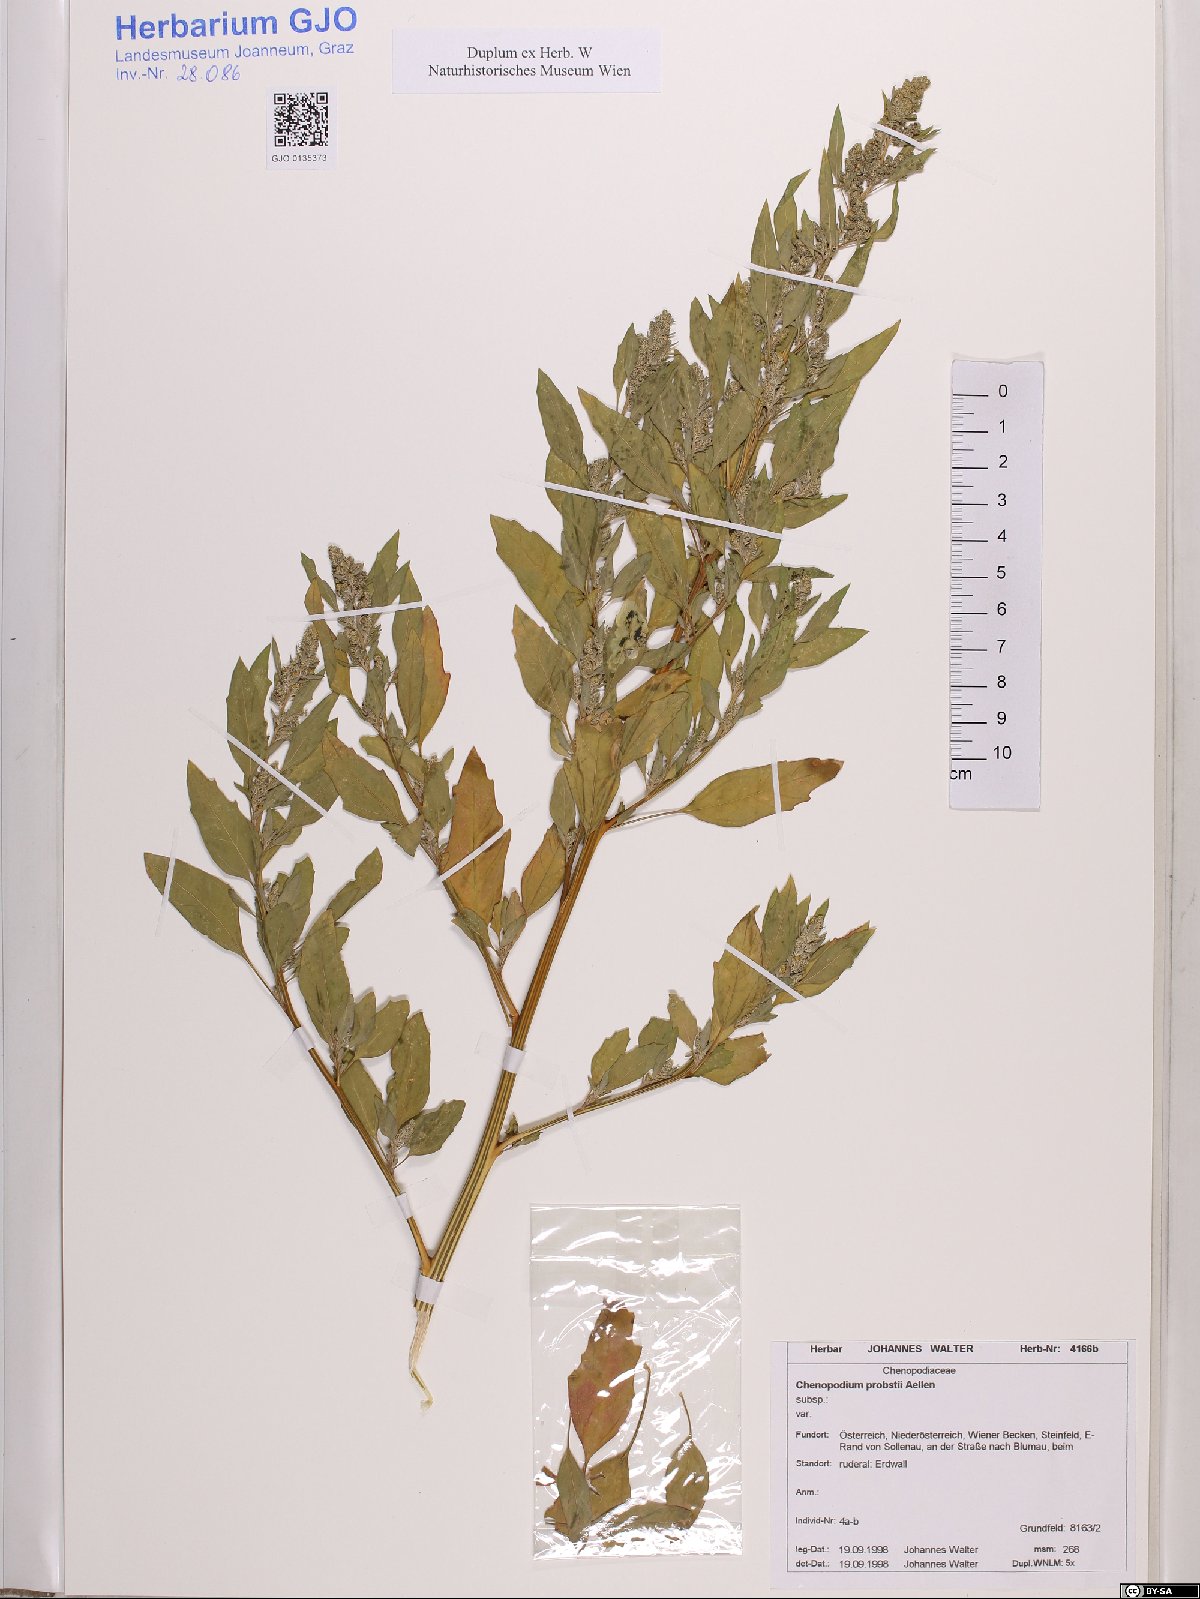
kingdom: Plantae
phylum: Tracheophyta
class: Magnoliopsida
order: Caryophyllales
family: Amaranthaceae
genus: Chenopodium
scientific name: Chenopodium probstii
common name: Probst's goosefoot
